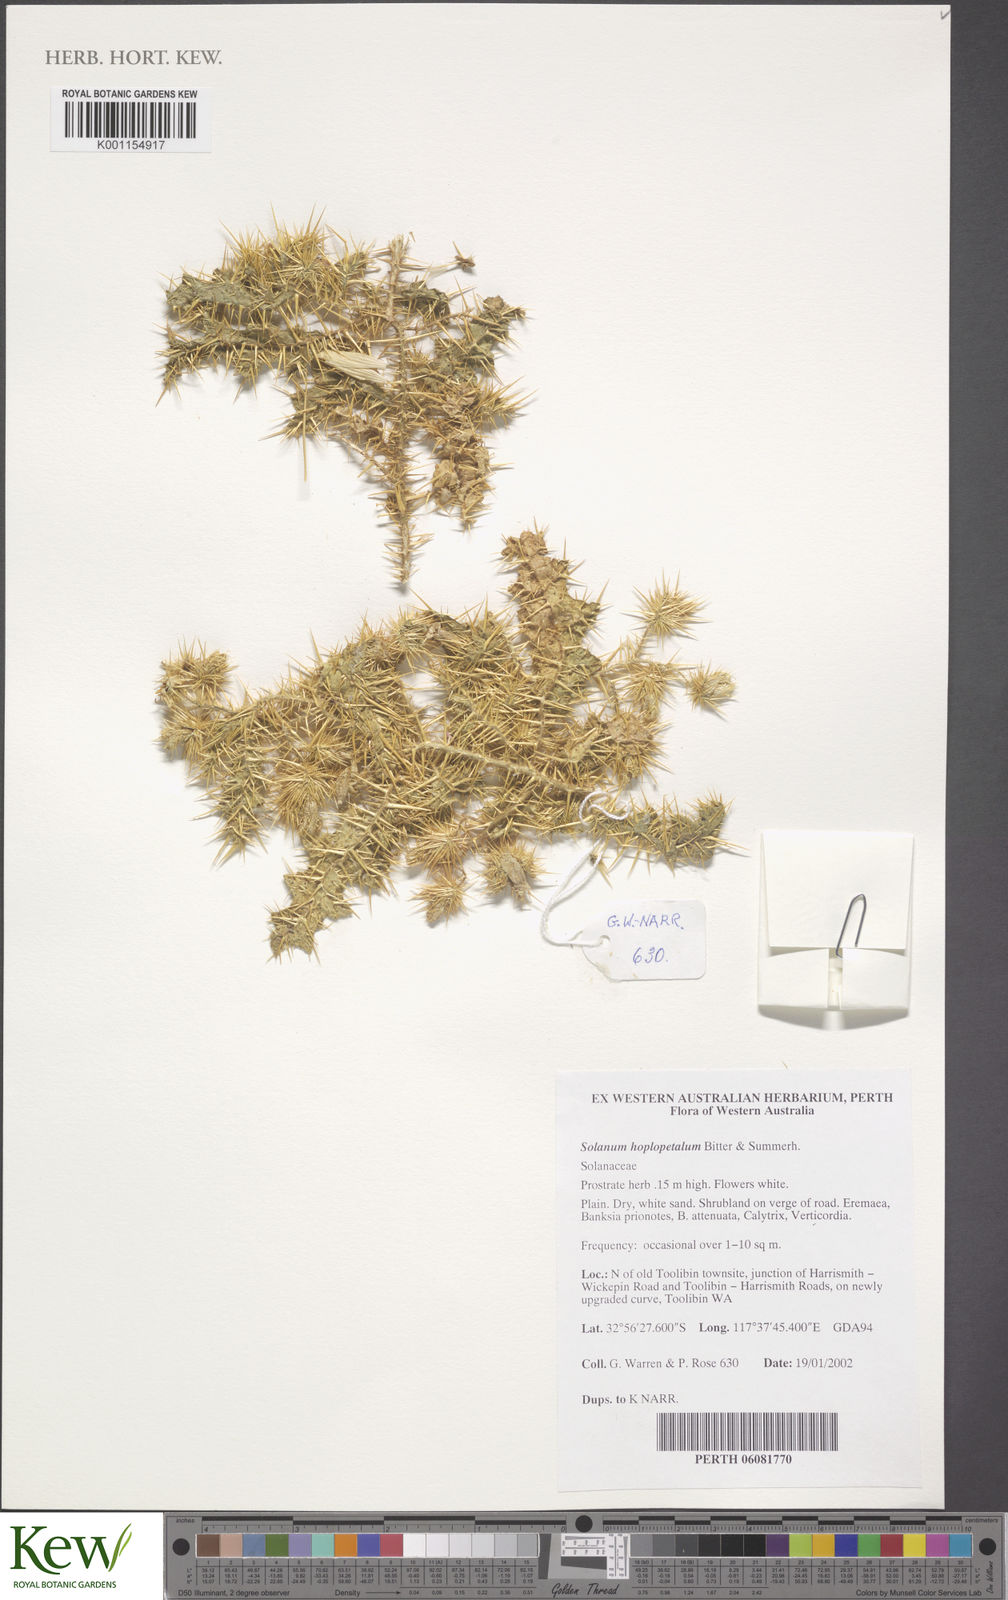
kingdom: Plantae
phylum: Tracheophyta
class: Magnoliopsida
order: Solanales
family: Solanaceae
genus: Solanum
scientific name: Solanum hoplopetalum
